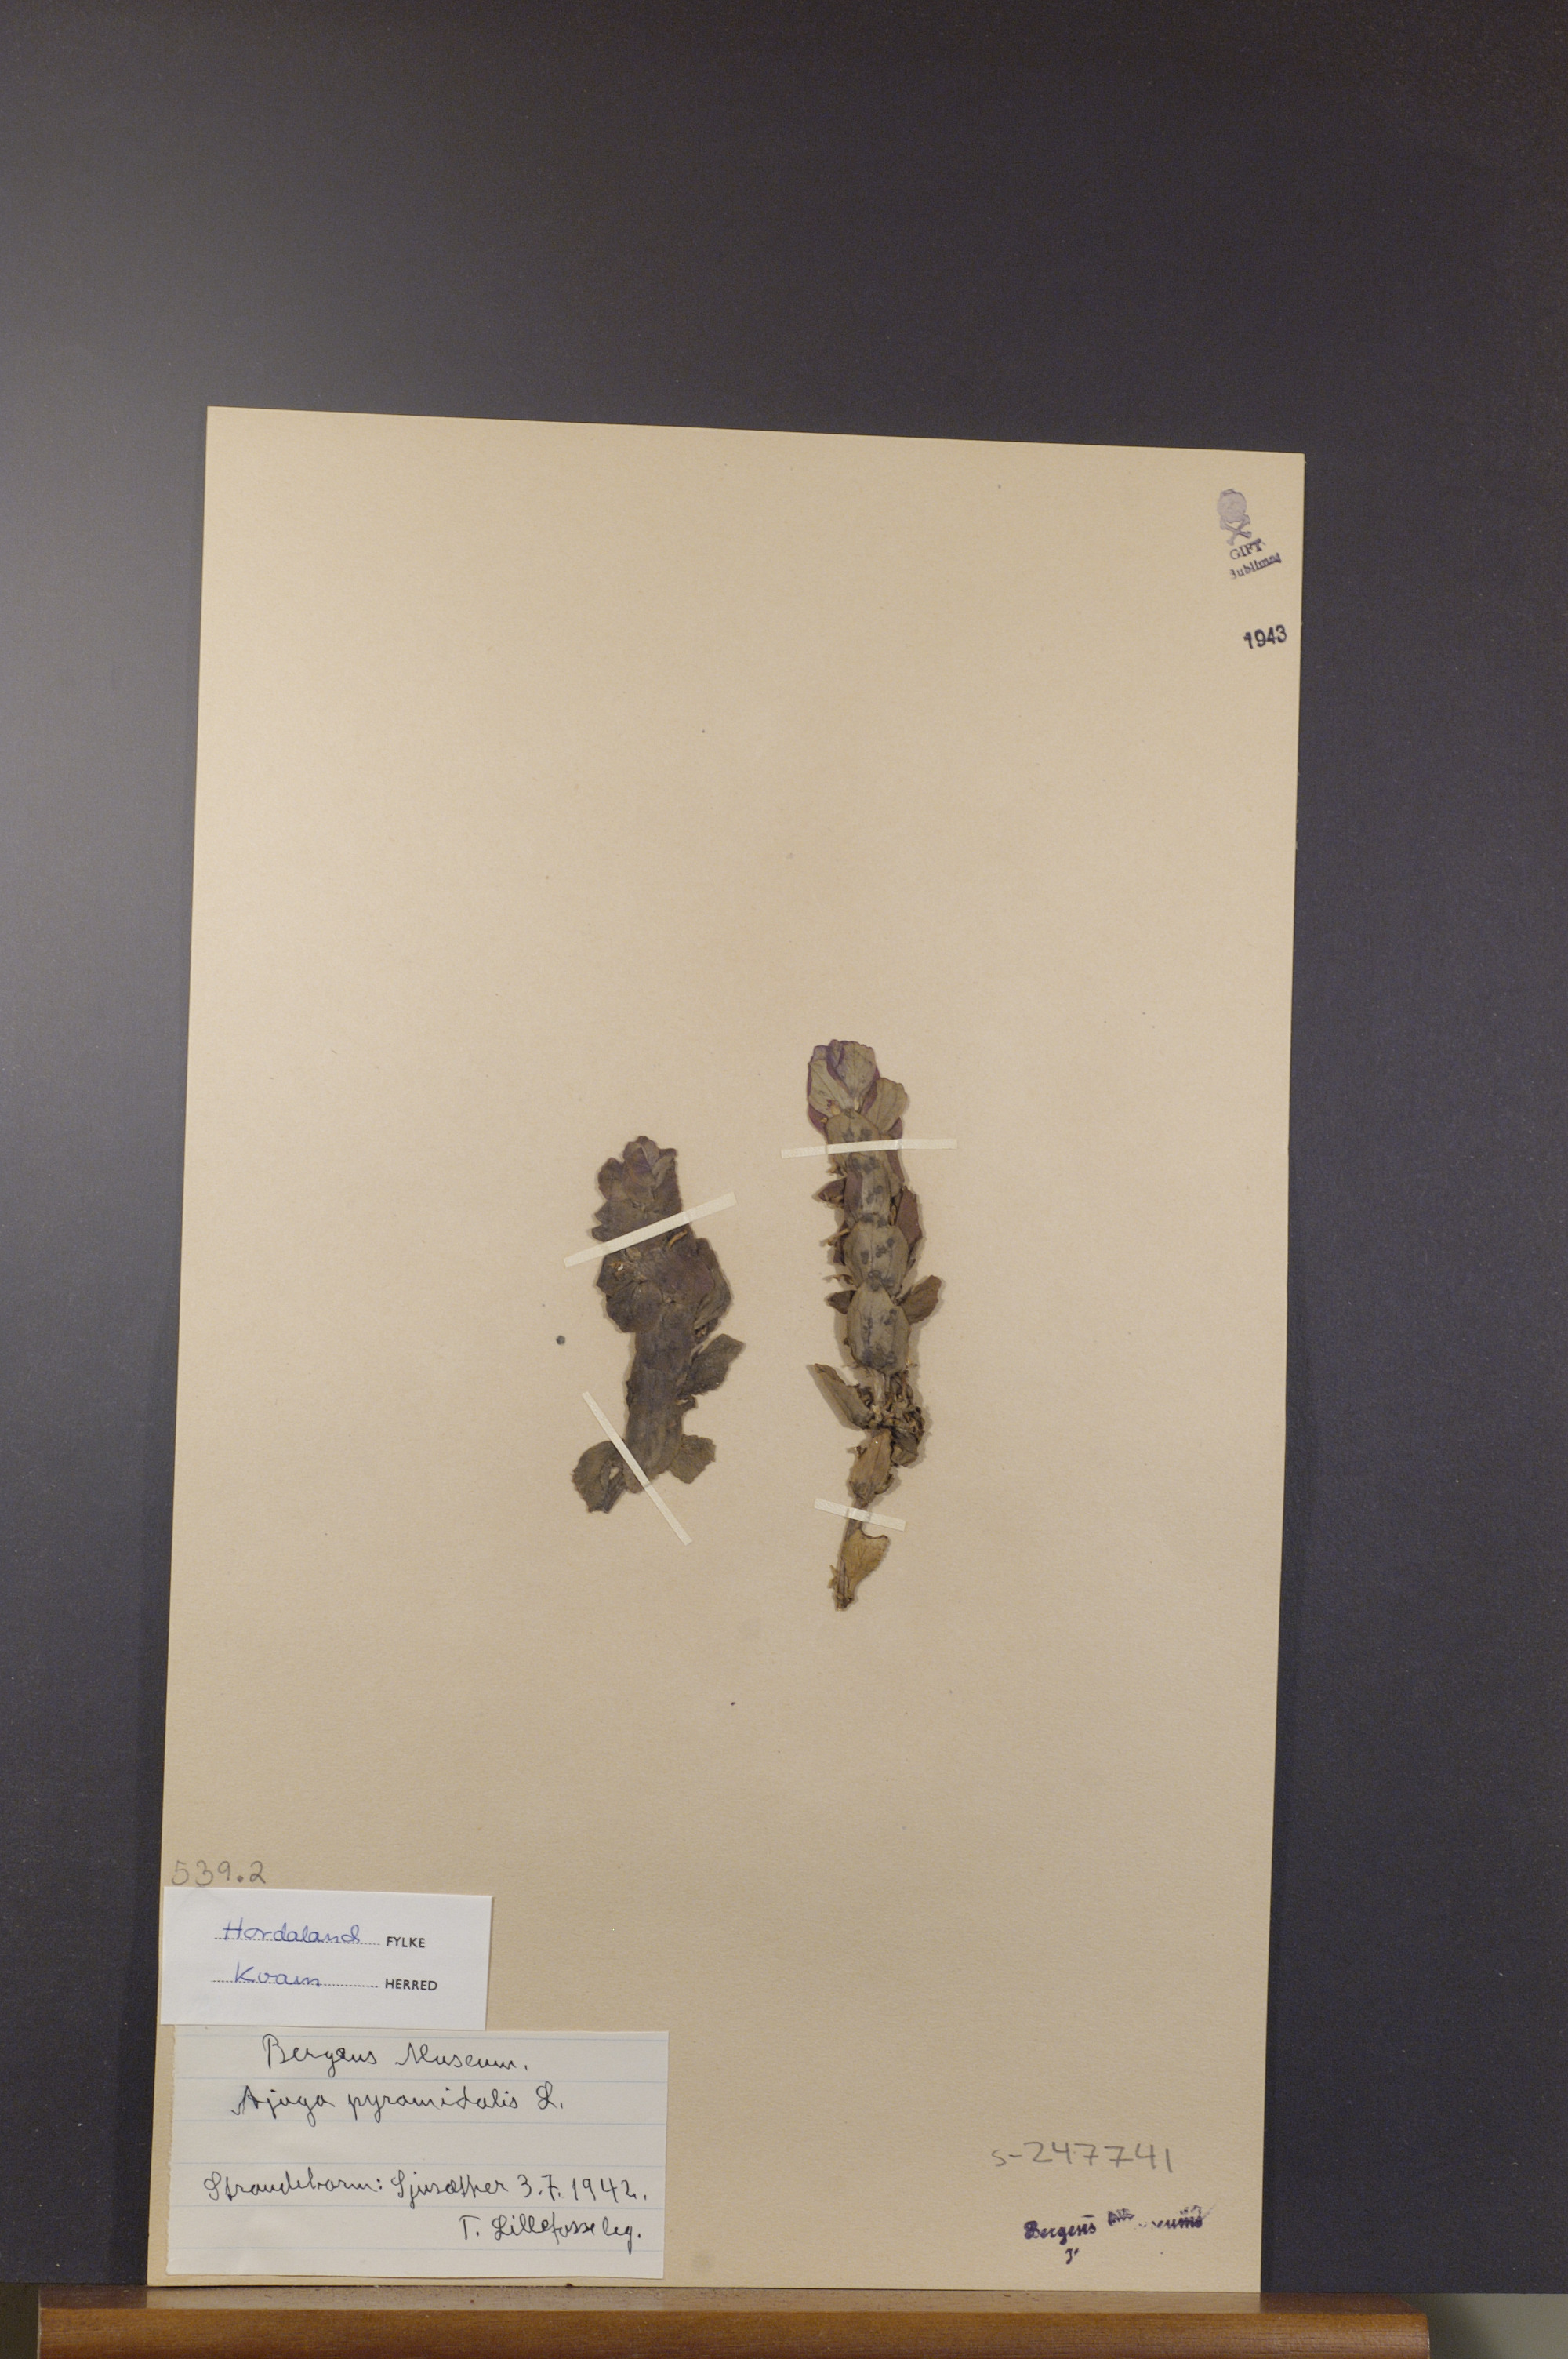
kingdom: Plantae
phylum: Tracheophyta
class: Magnoliopsida
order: Lamiales
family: Lamiaceae
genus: Ajuga
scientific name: Ajuga pyramidalis
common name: Pyramid bugle
